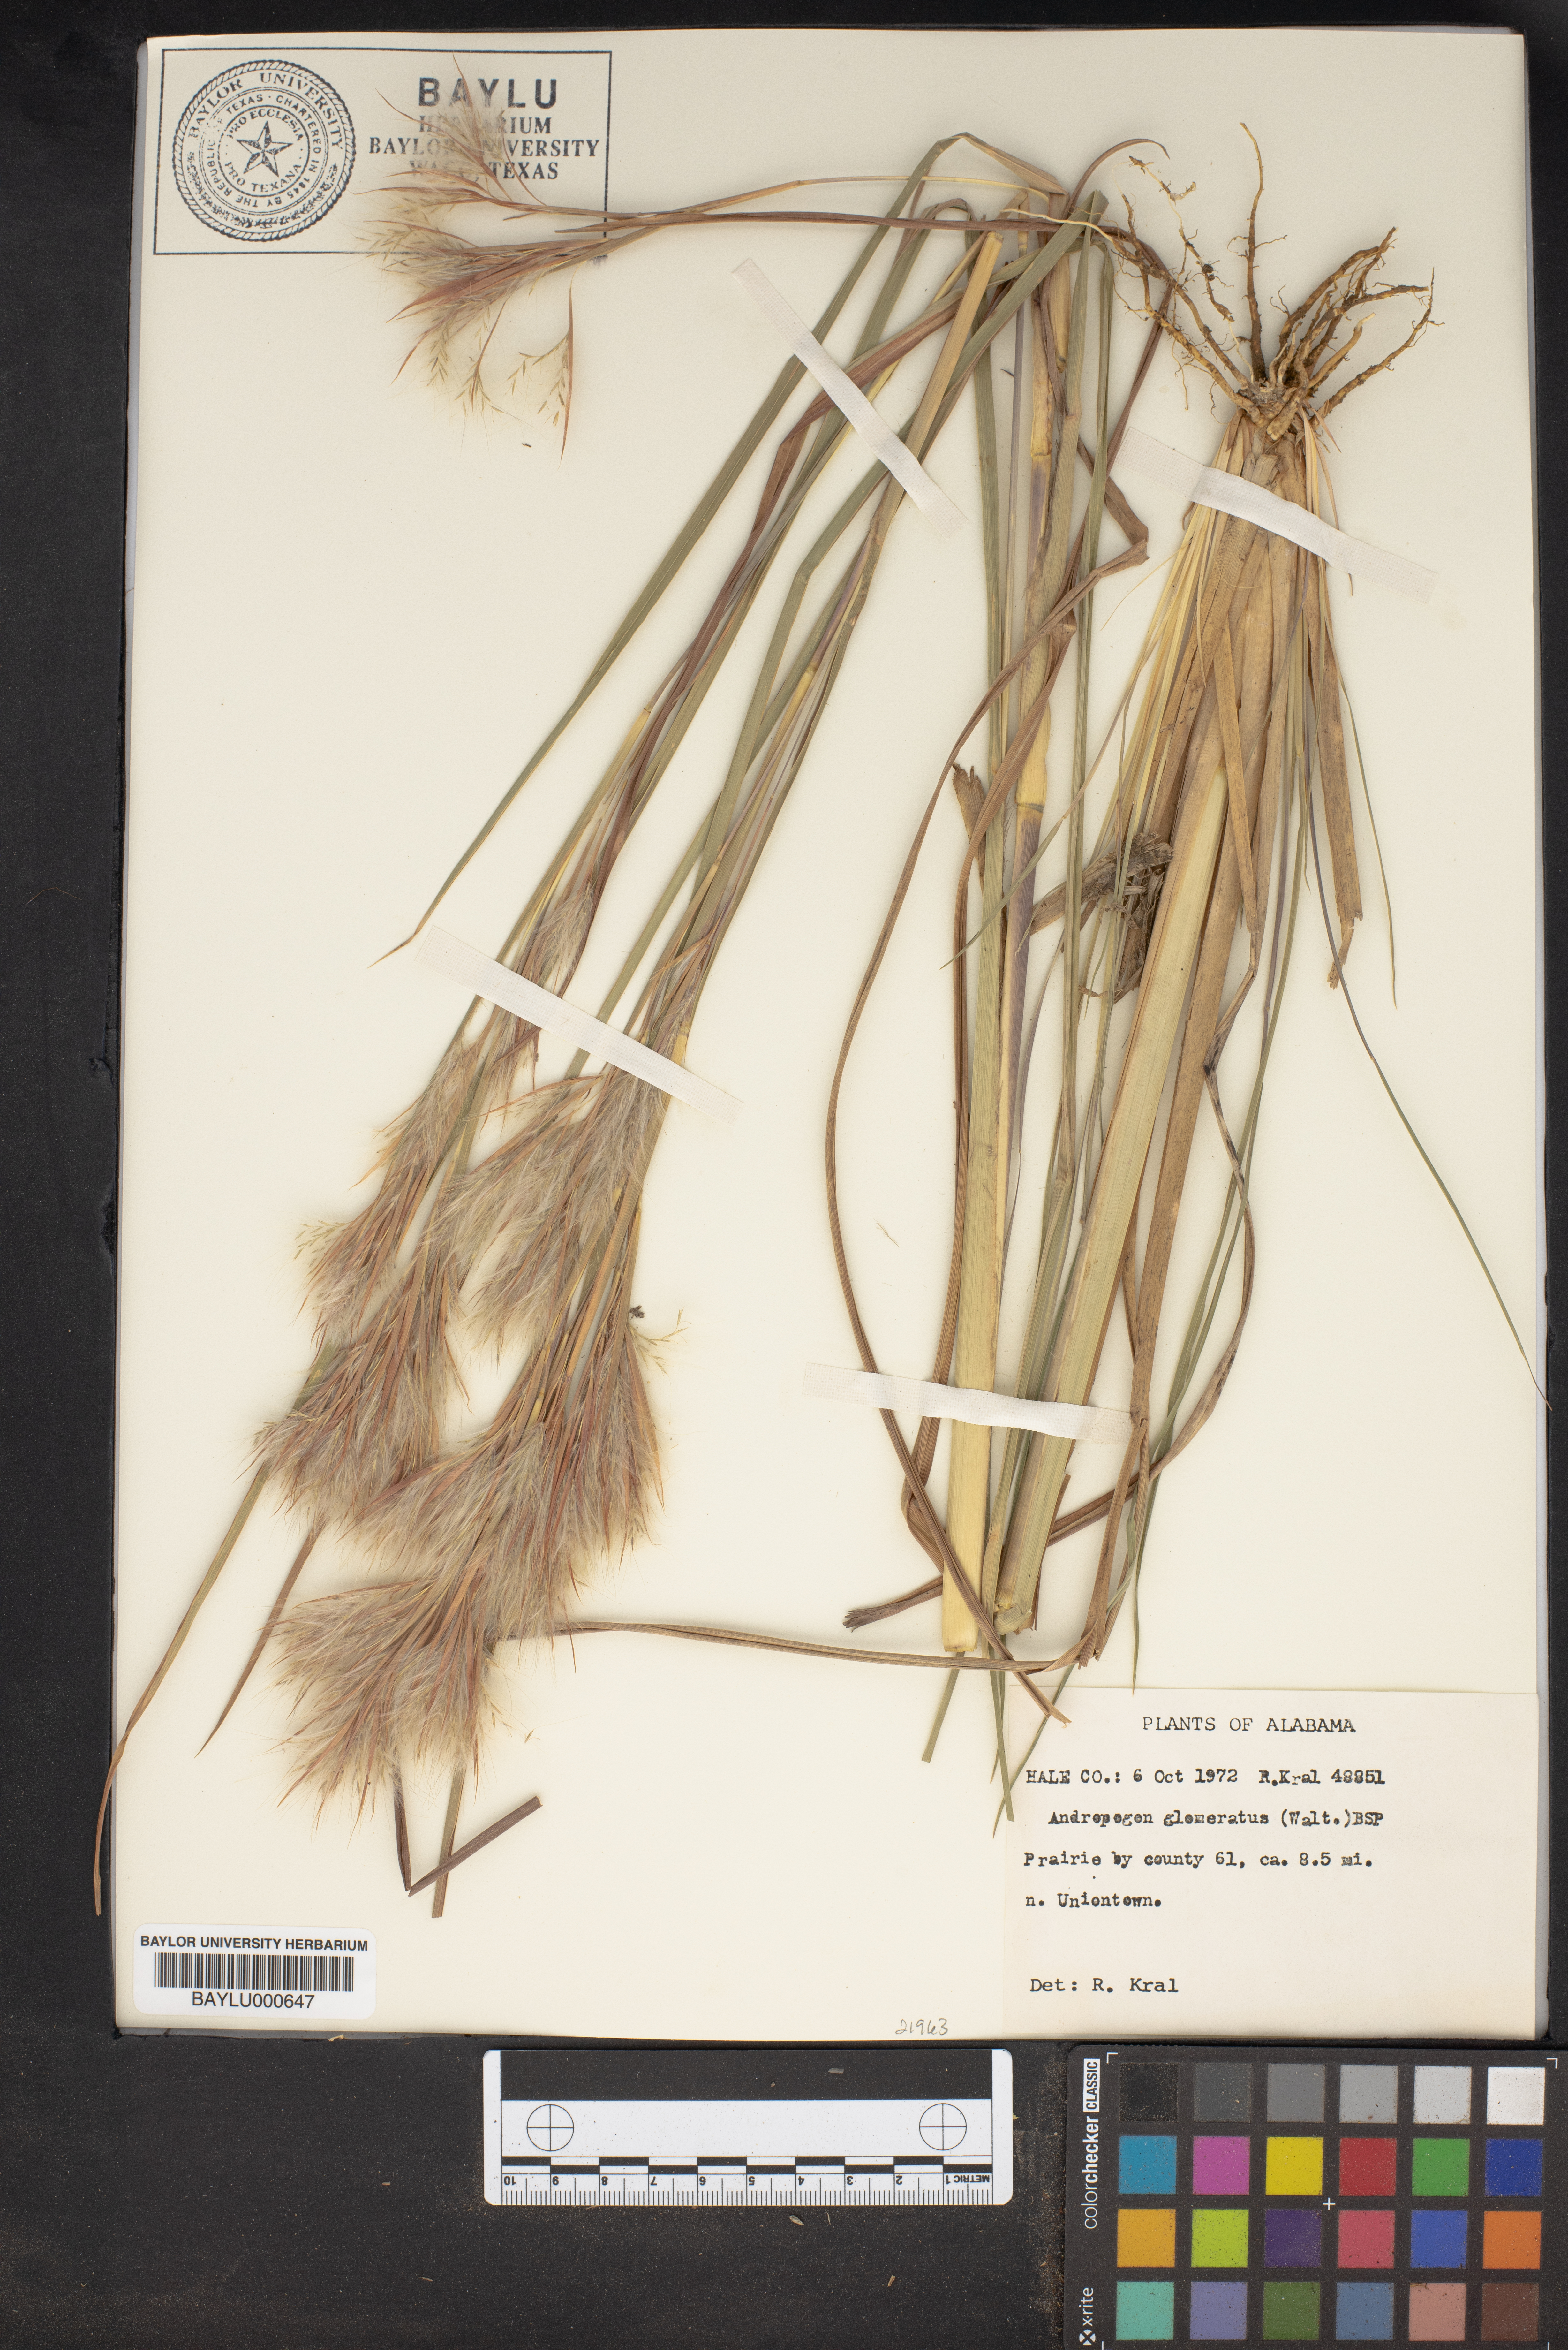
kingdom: Plantae
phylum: Tracheophyta
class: Liliopsida
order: Poales
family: Poaceae
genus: Andropogon
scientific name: Andropogon glomeratus
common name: Bushy beard grass
